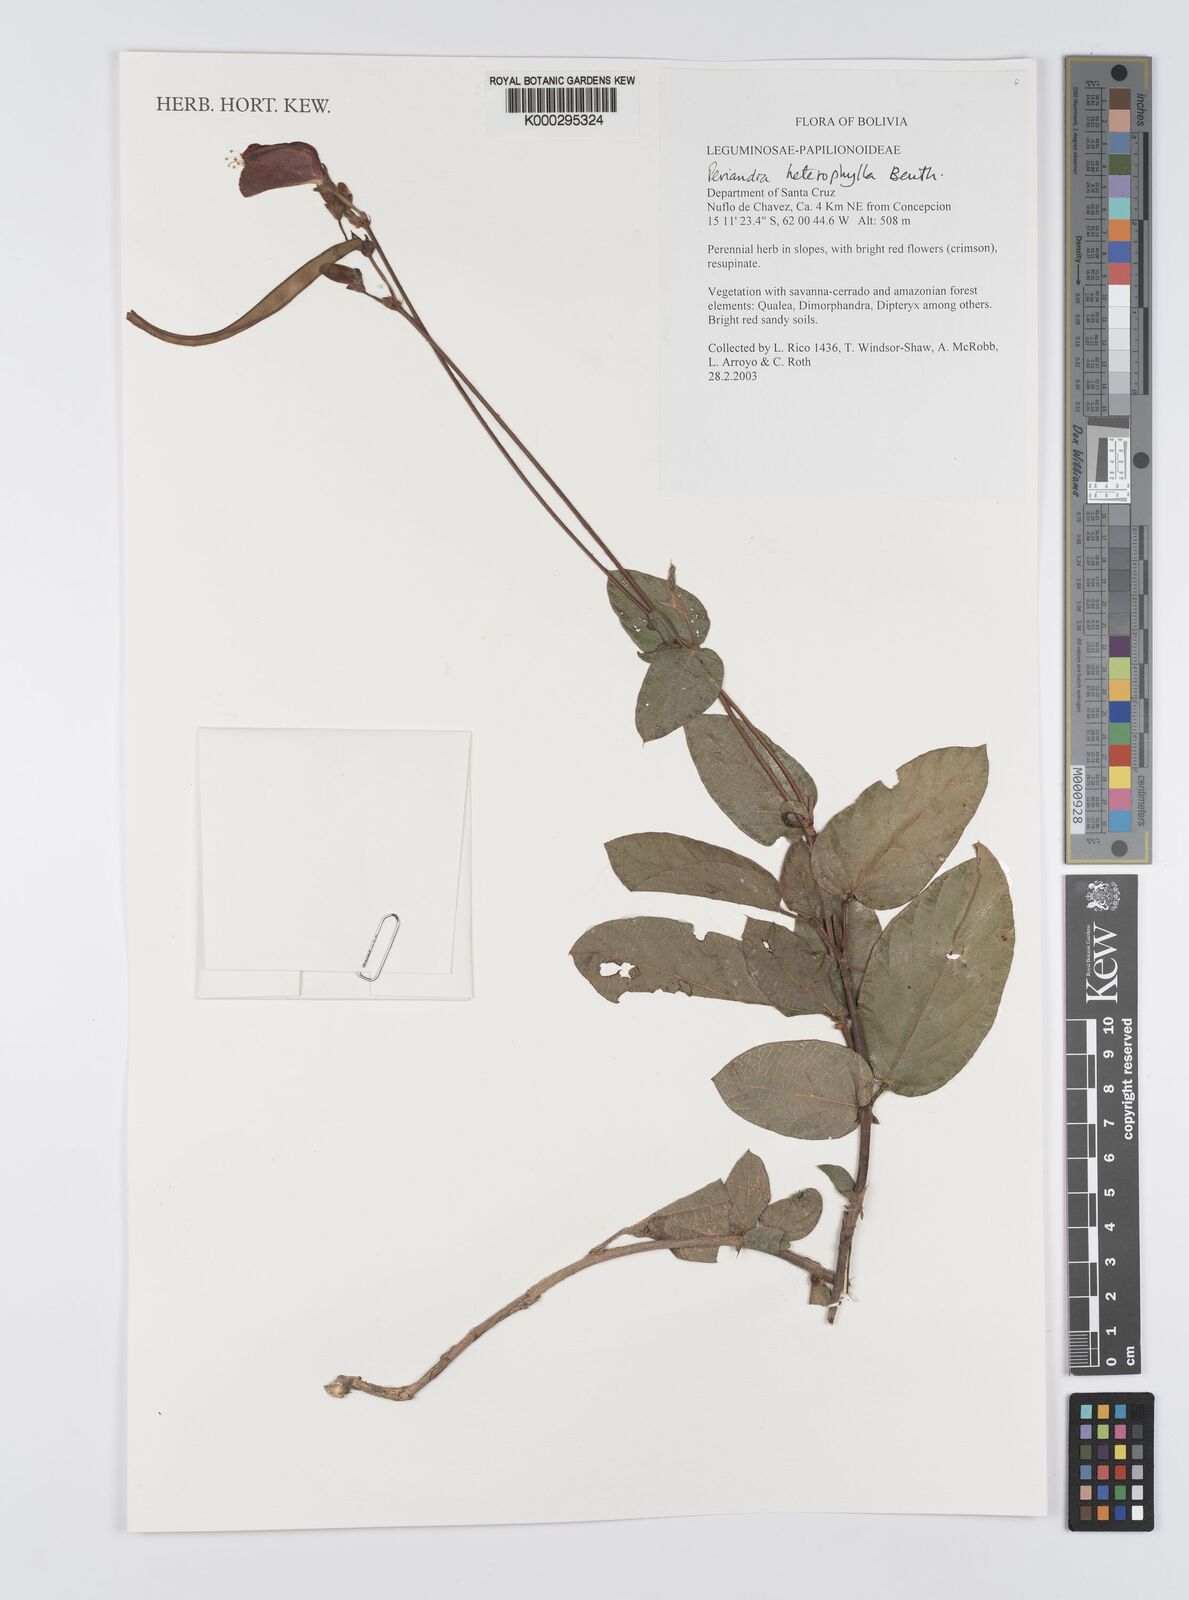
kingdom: Plantae
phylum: Tracheophyta
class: Magnoliopsida
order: Fabales
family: Fabaceae
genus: Periandra
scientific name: Periandra heterophylla
